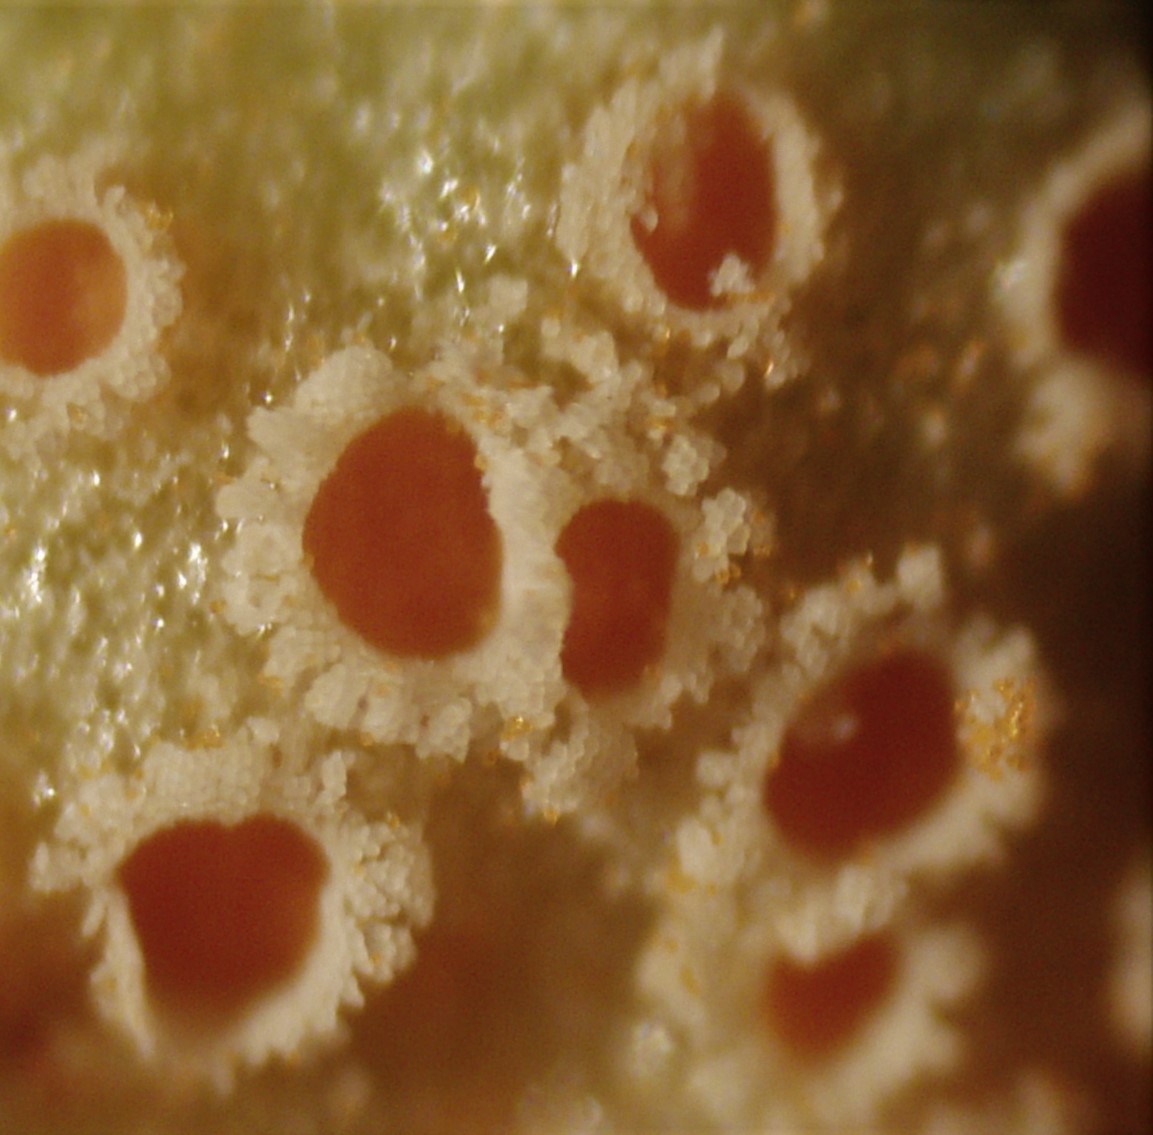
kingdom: Fungi
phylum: Basidiomycota
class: Pucciniomycetes
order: Pucciniales
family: Pucciniaceae
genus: Puccinia
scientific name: Puccinia punctata
